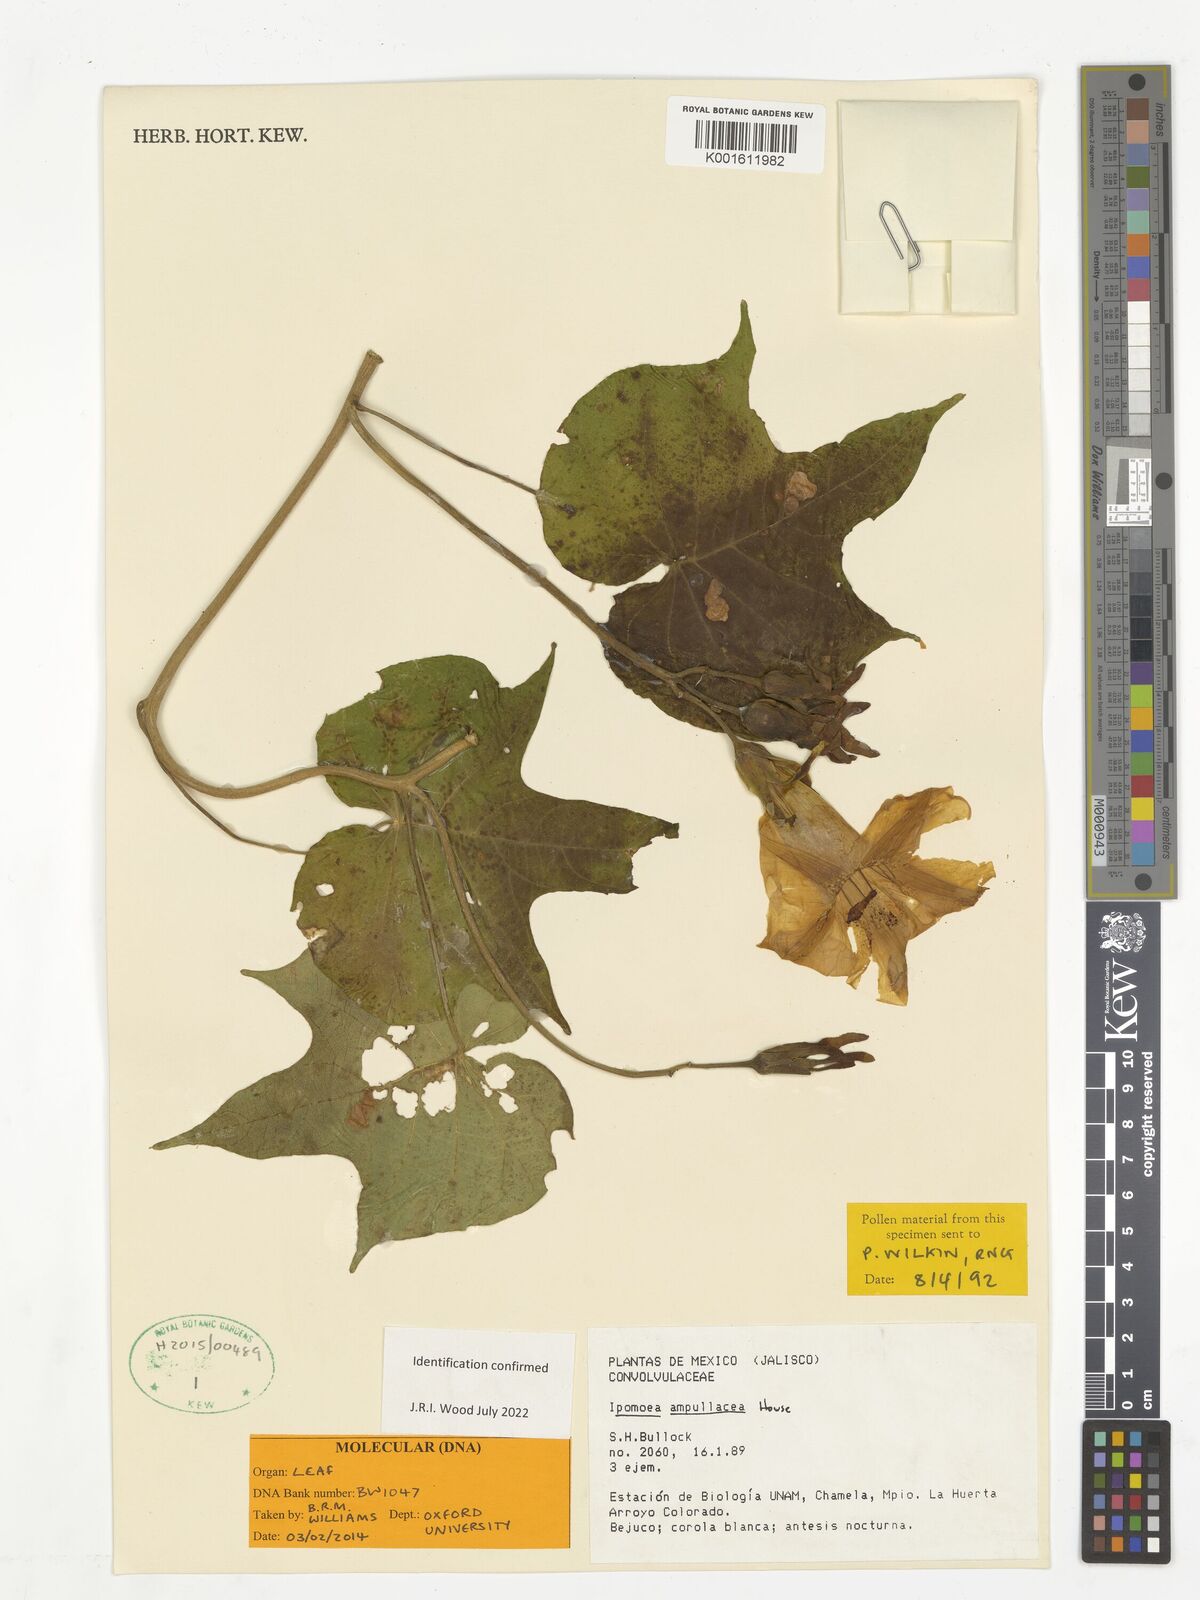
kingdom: Plantae
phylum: Tracheophyta
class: Magnoliopsida
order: Solanales
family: Convolvulaceae
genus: Ipomoea
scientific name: Ipomoea ampullacea
